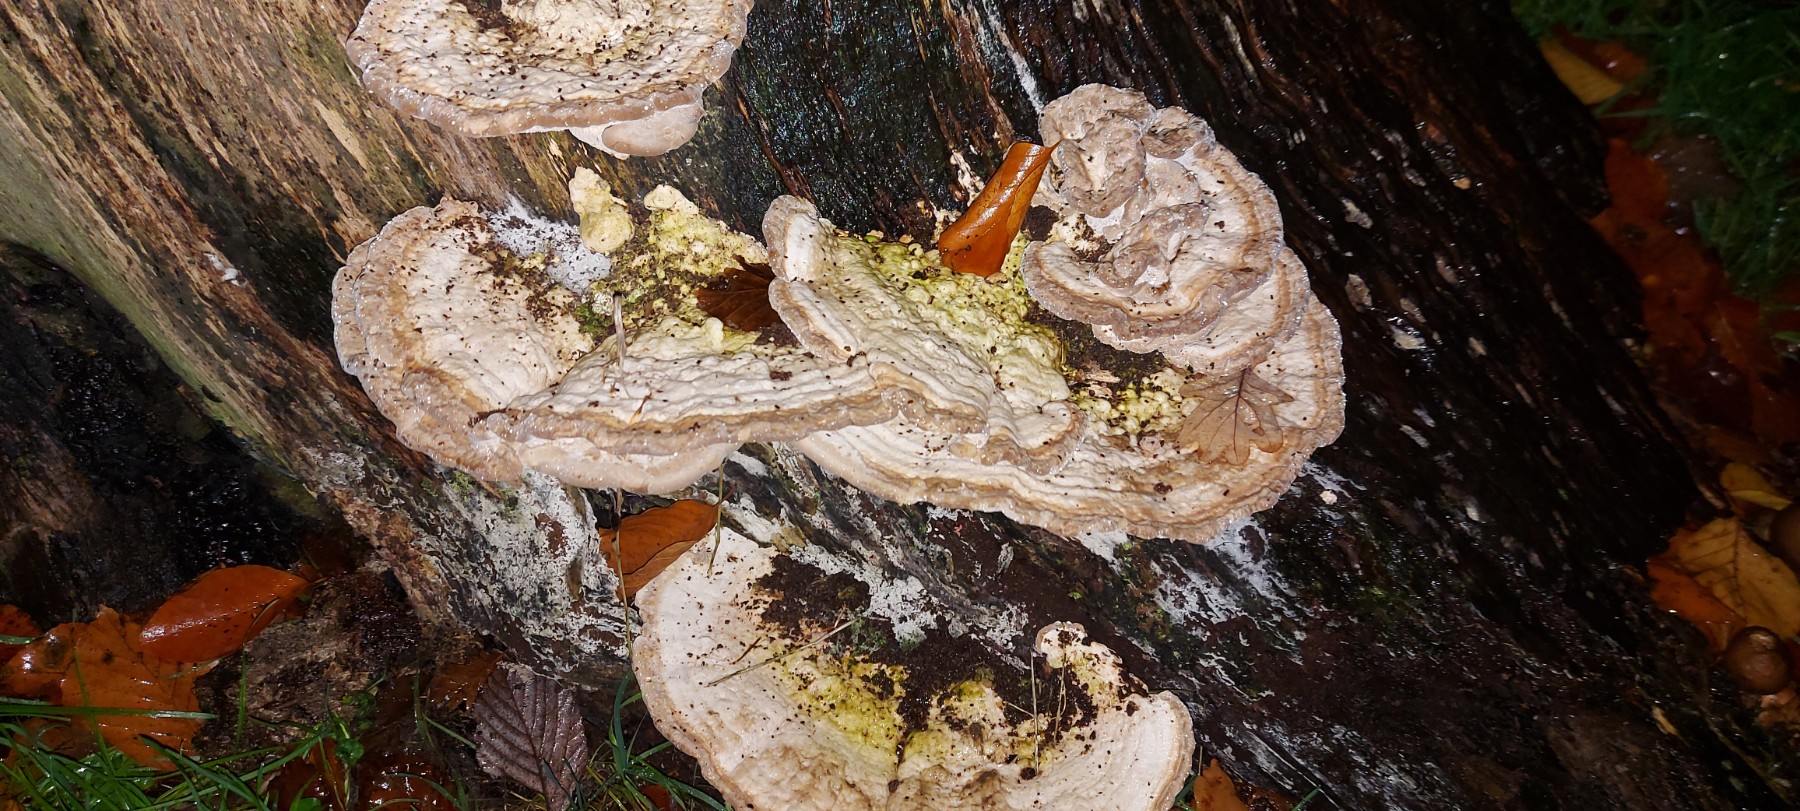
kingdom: Fungi
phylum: Basidiomycota
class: Agaricomycetes
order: Polyporales
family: Polyporaceae
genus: Trametes
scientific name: Trametes gibbosa
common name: puklet læderporesvamp
